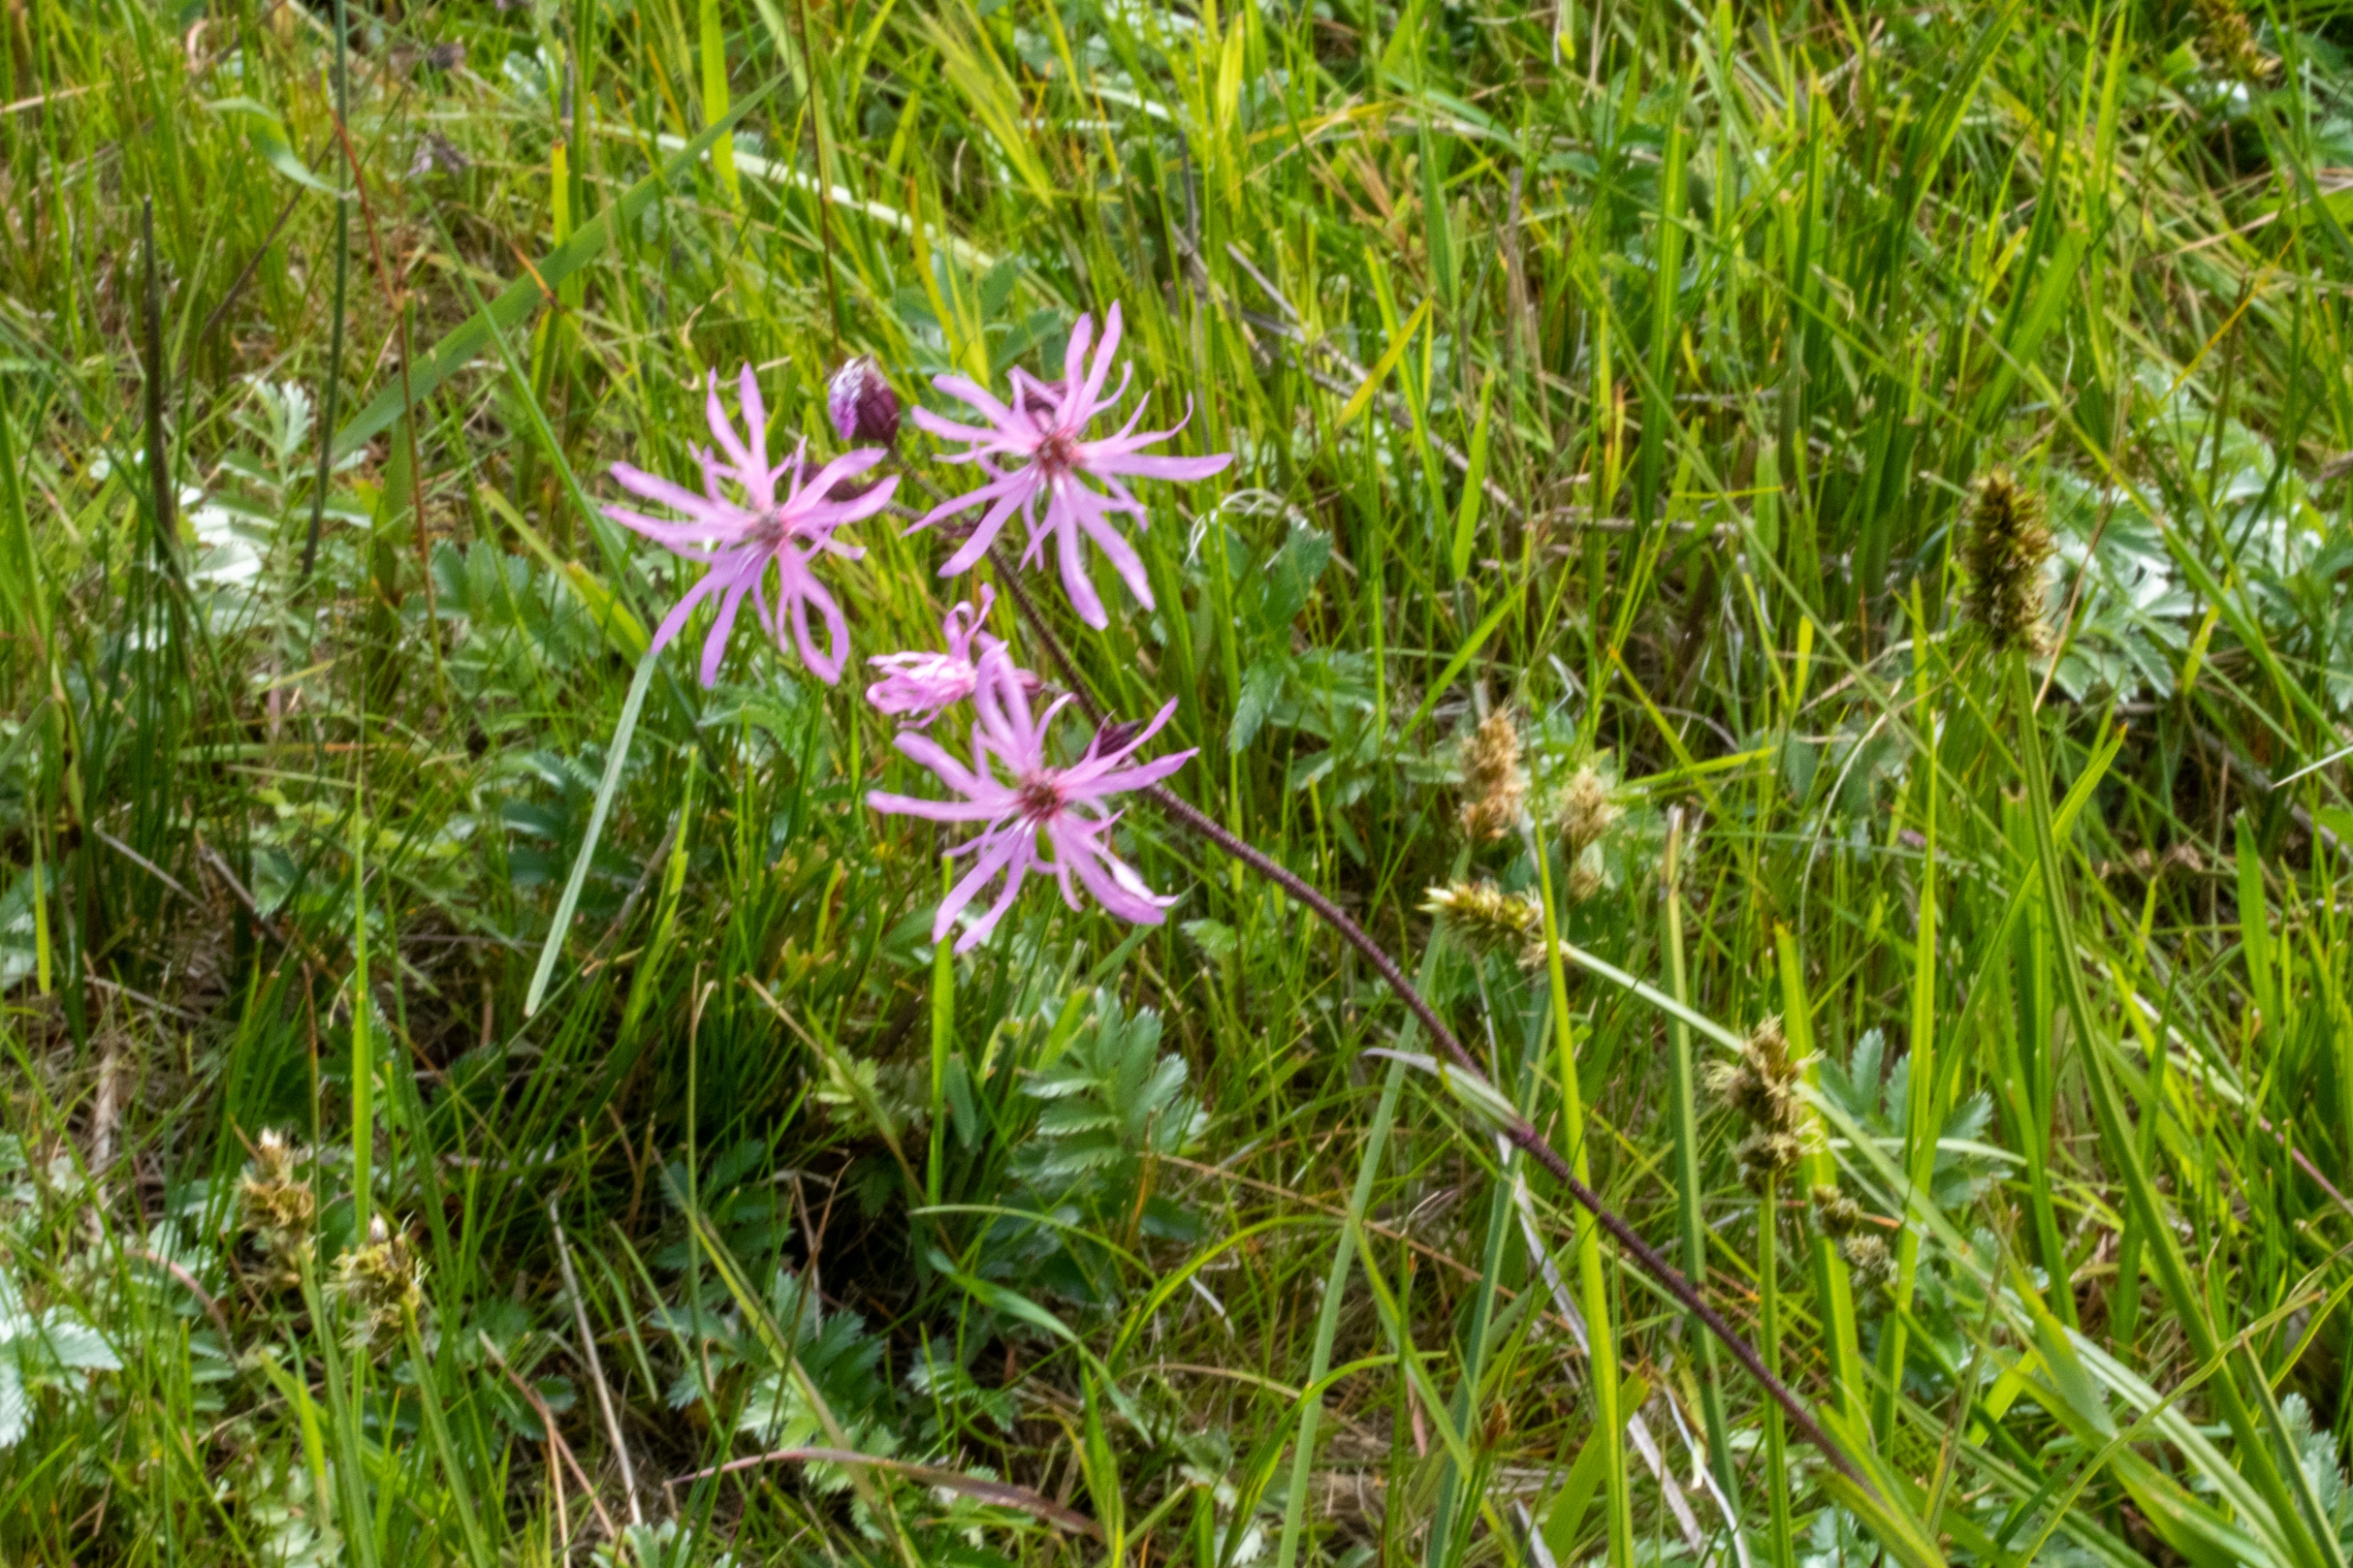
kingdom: Plantae
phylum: Tracheophyta
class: Magnoliopsida
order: Caryophyllales
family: Caryophyllaceae
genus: Silene
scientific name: Silene flos-cuculi
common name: Trævlekrone
